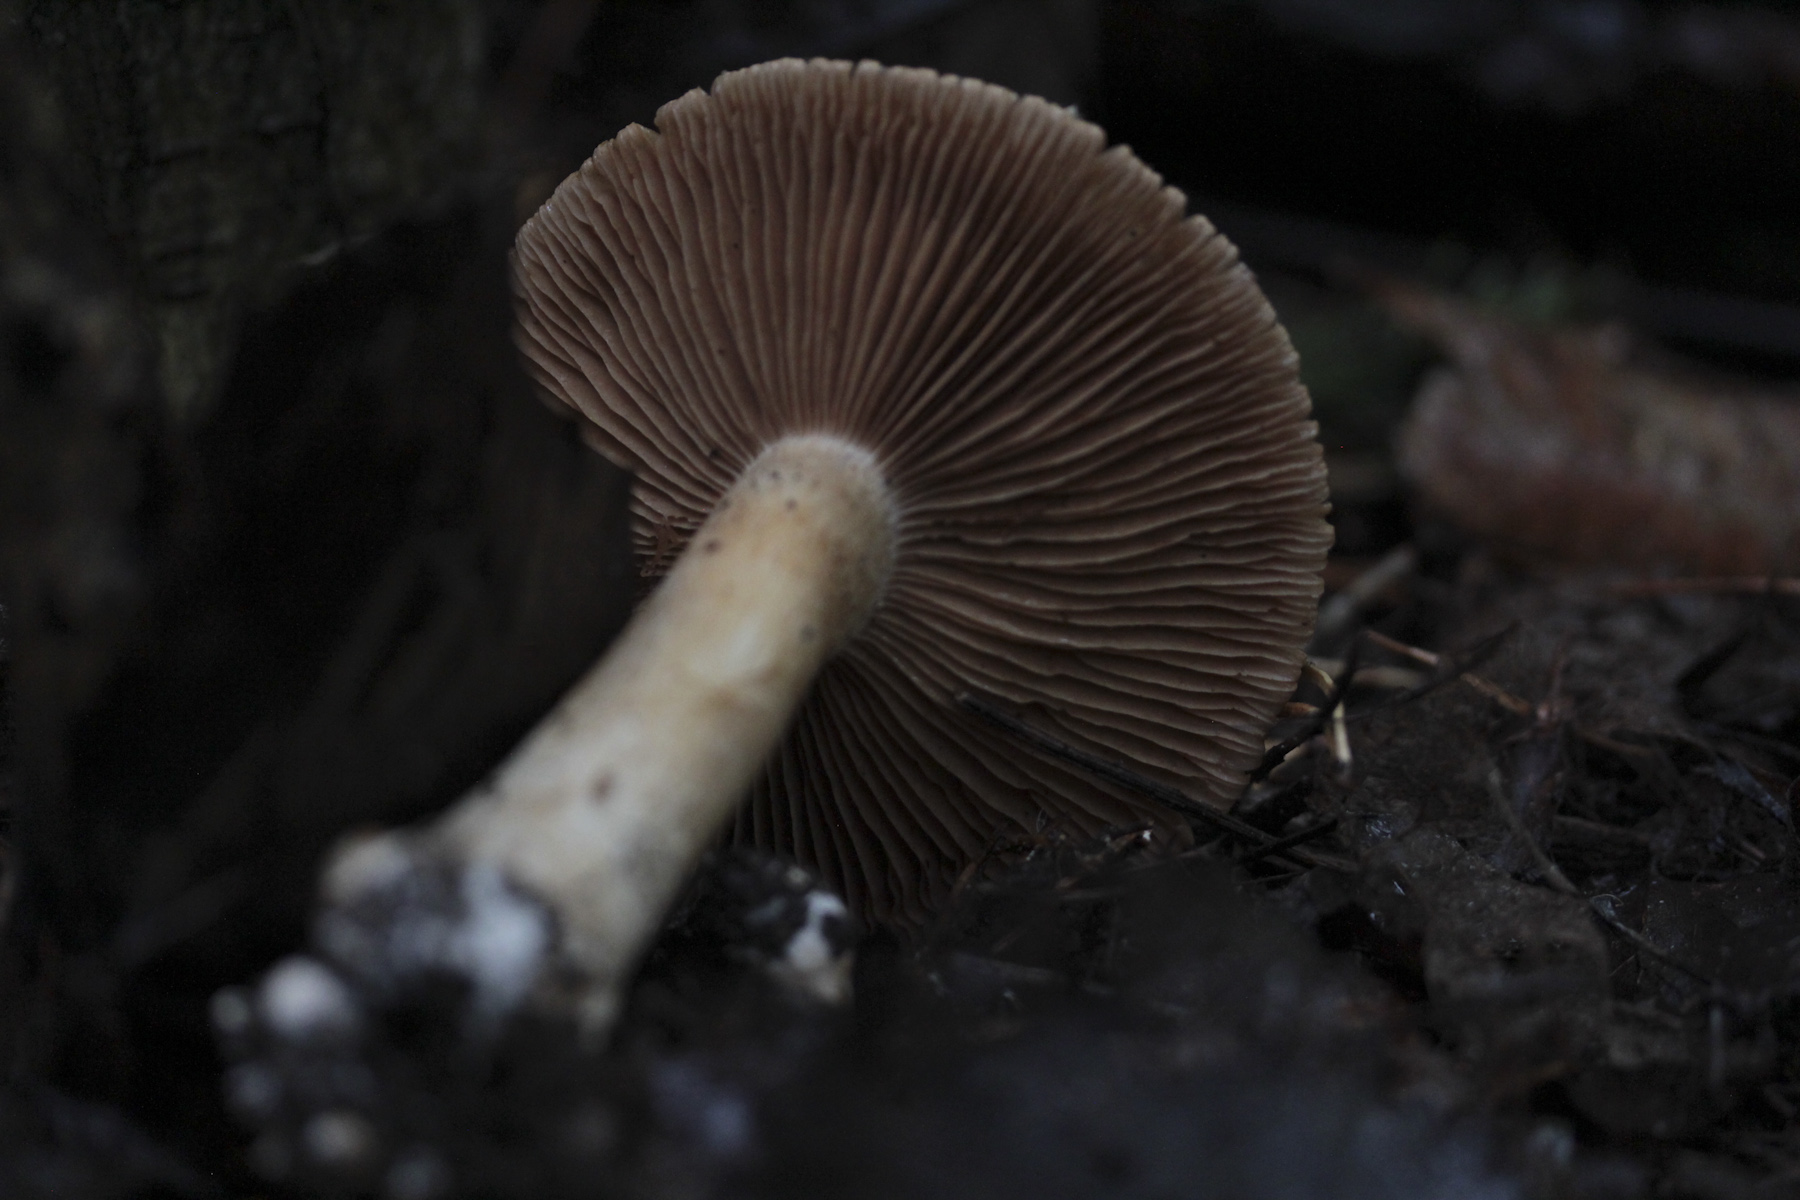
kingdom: Fungi
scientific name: Fungi
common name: Fungi
